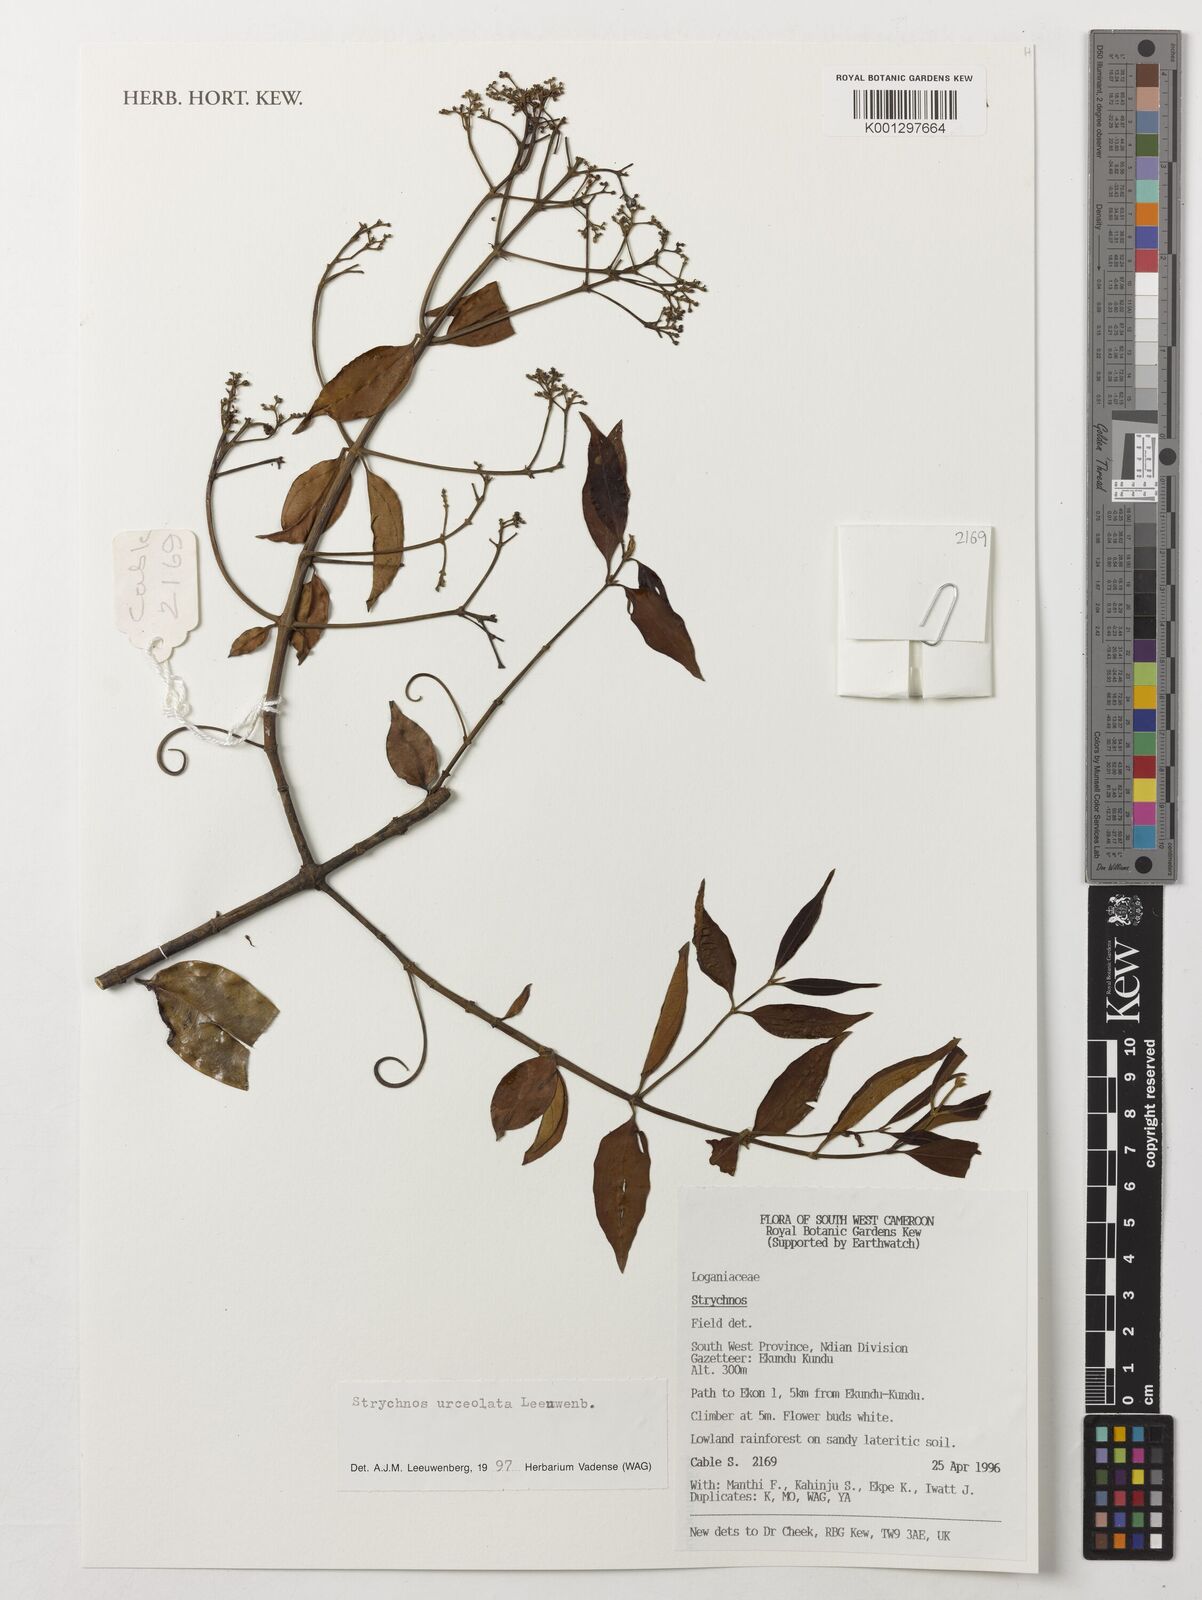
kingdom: Plantae
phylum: Tracheophyta
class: Magnoliopsida
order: Gentianales
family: Loganiaceae
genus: Strychnos
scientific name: Strychnos urceolata
